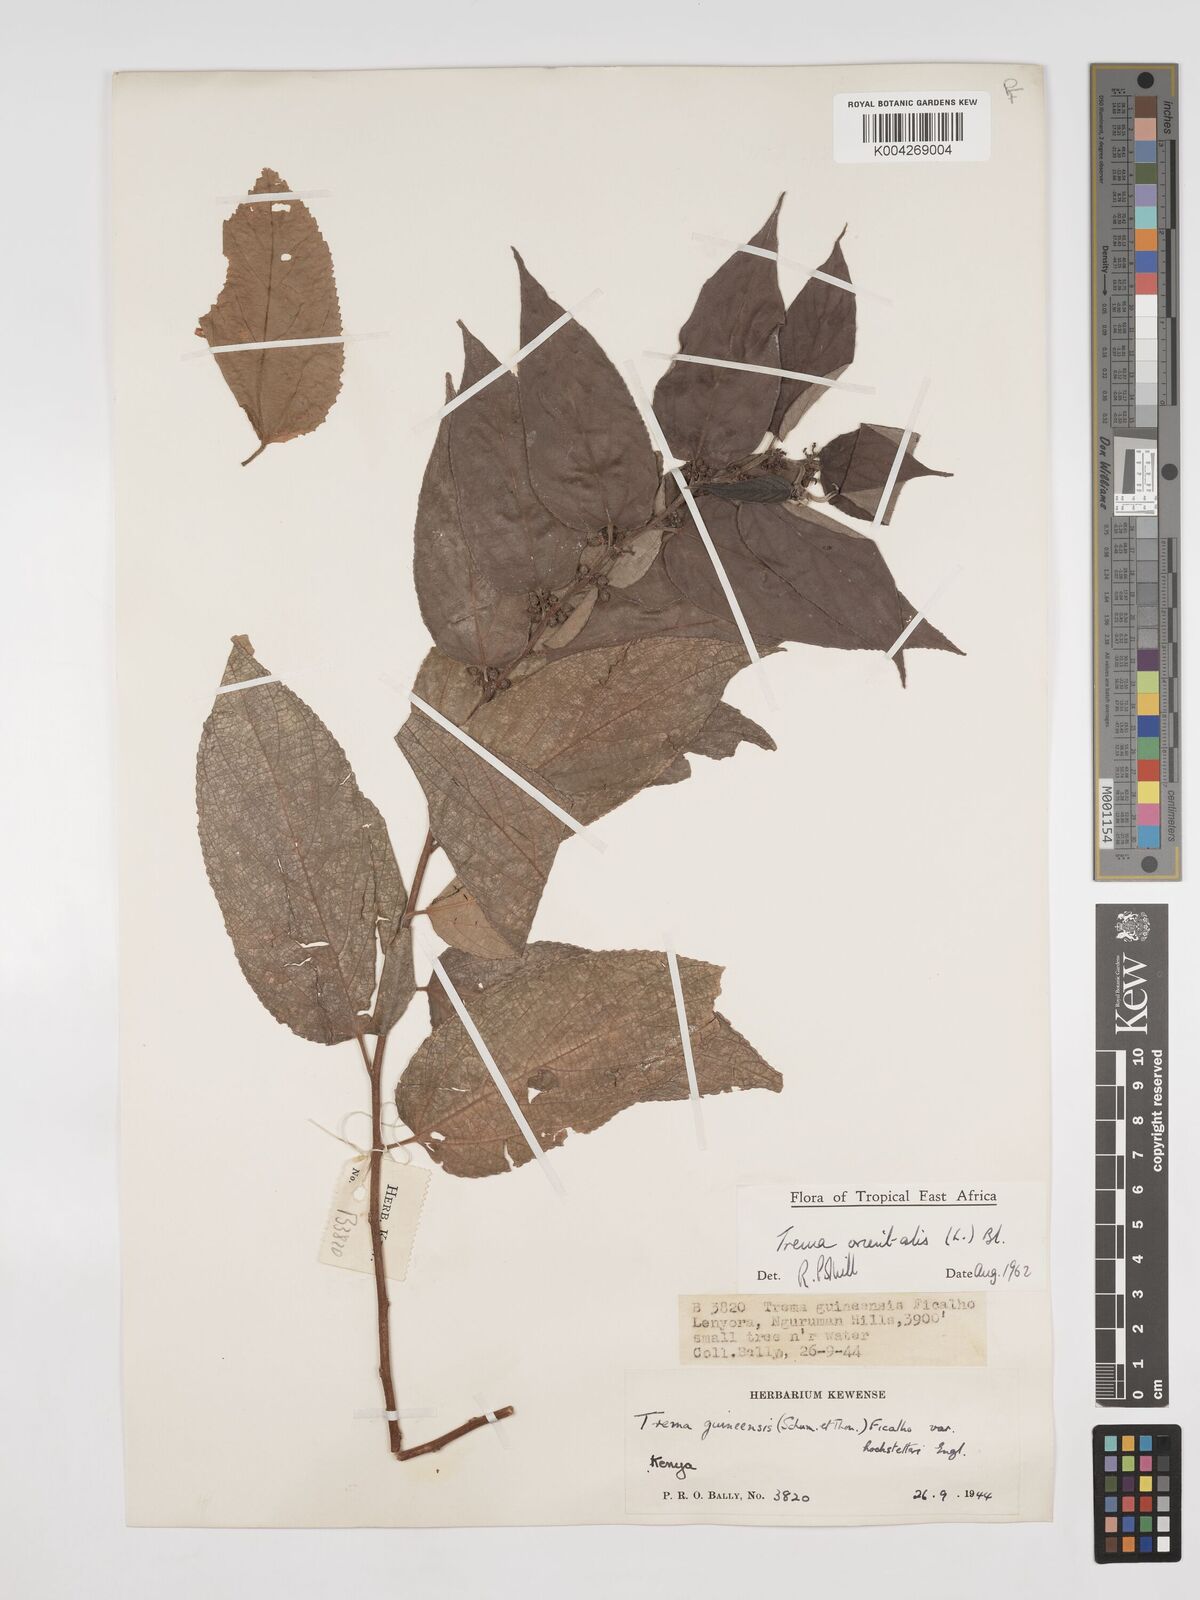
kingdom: Plantae
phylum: Tracheophyta
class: Magnoliopsida
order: Rosales
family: Cannabaceae
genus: Trema
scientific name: Trema orientale
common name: Indian charcoal tree
